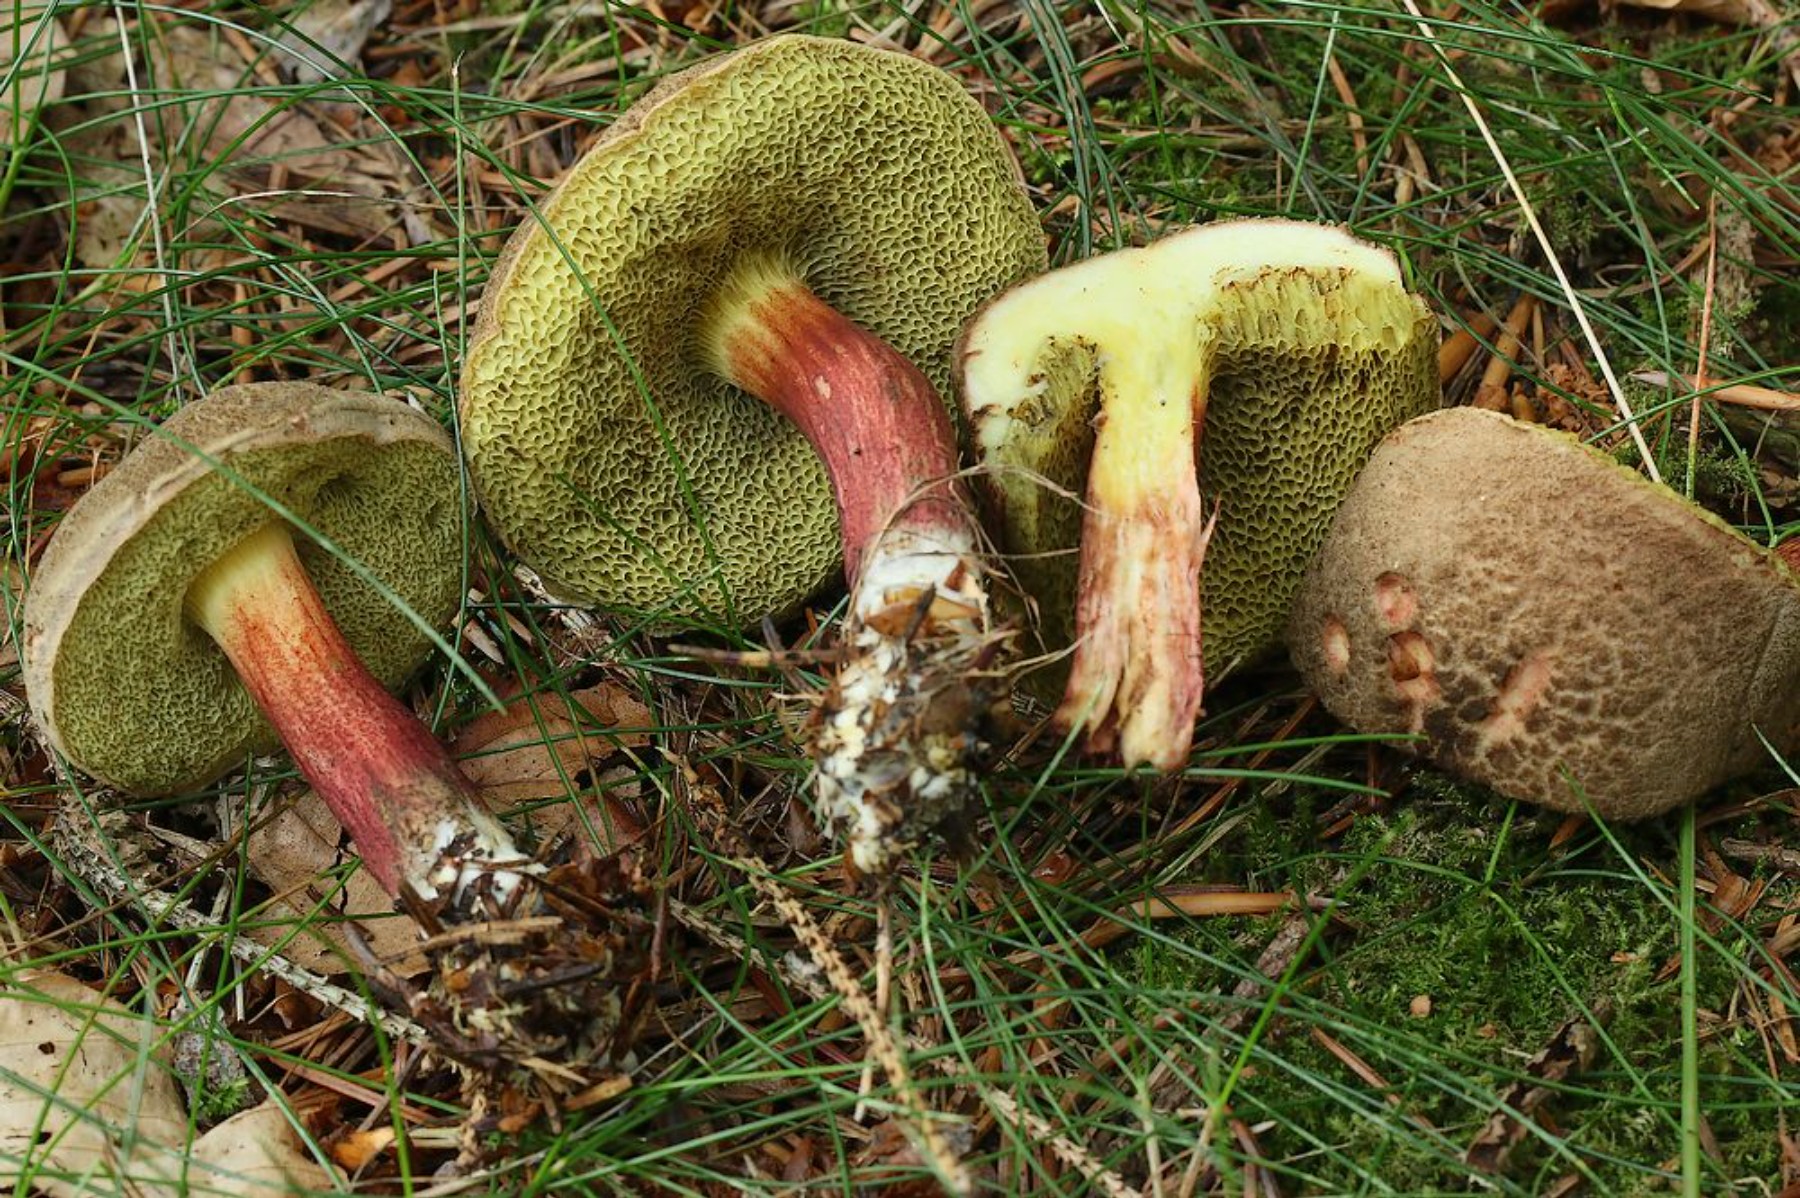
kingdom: Fungi
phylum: Basidiomycota
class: Agaricomycetes
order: Boletales
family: Boletaceae
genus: Xerocomellus
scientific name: Xerocomellus chrysenteron
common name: rødsprukken rørhat
